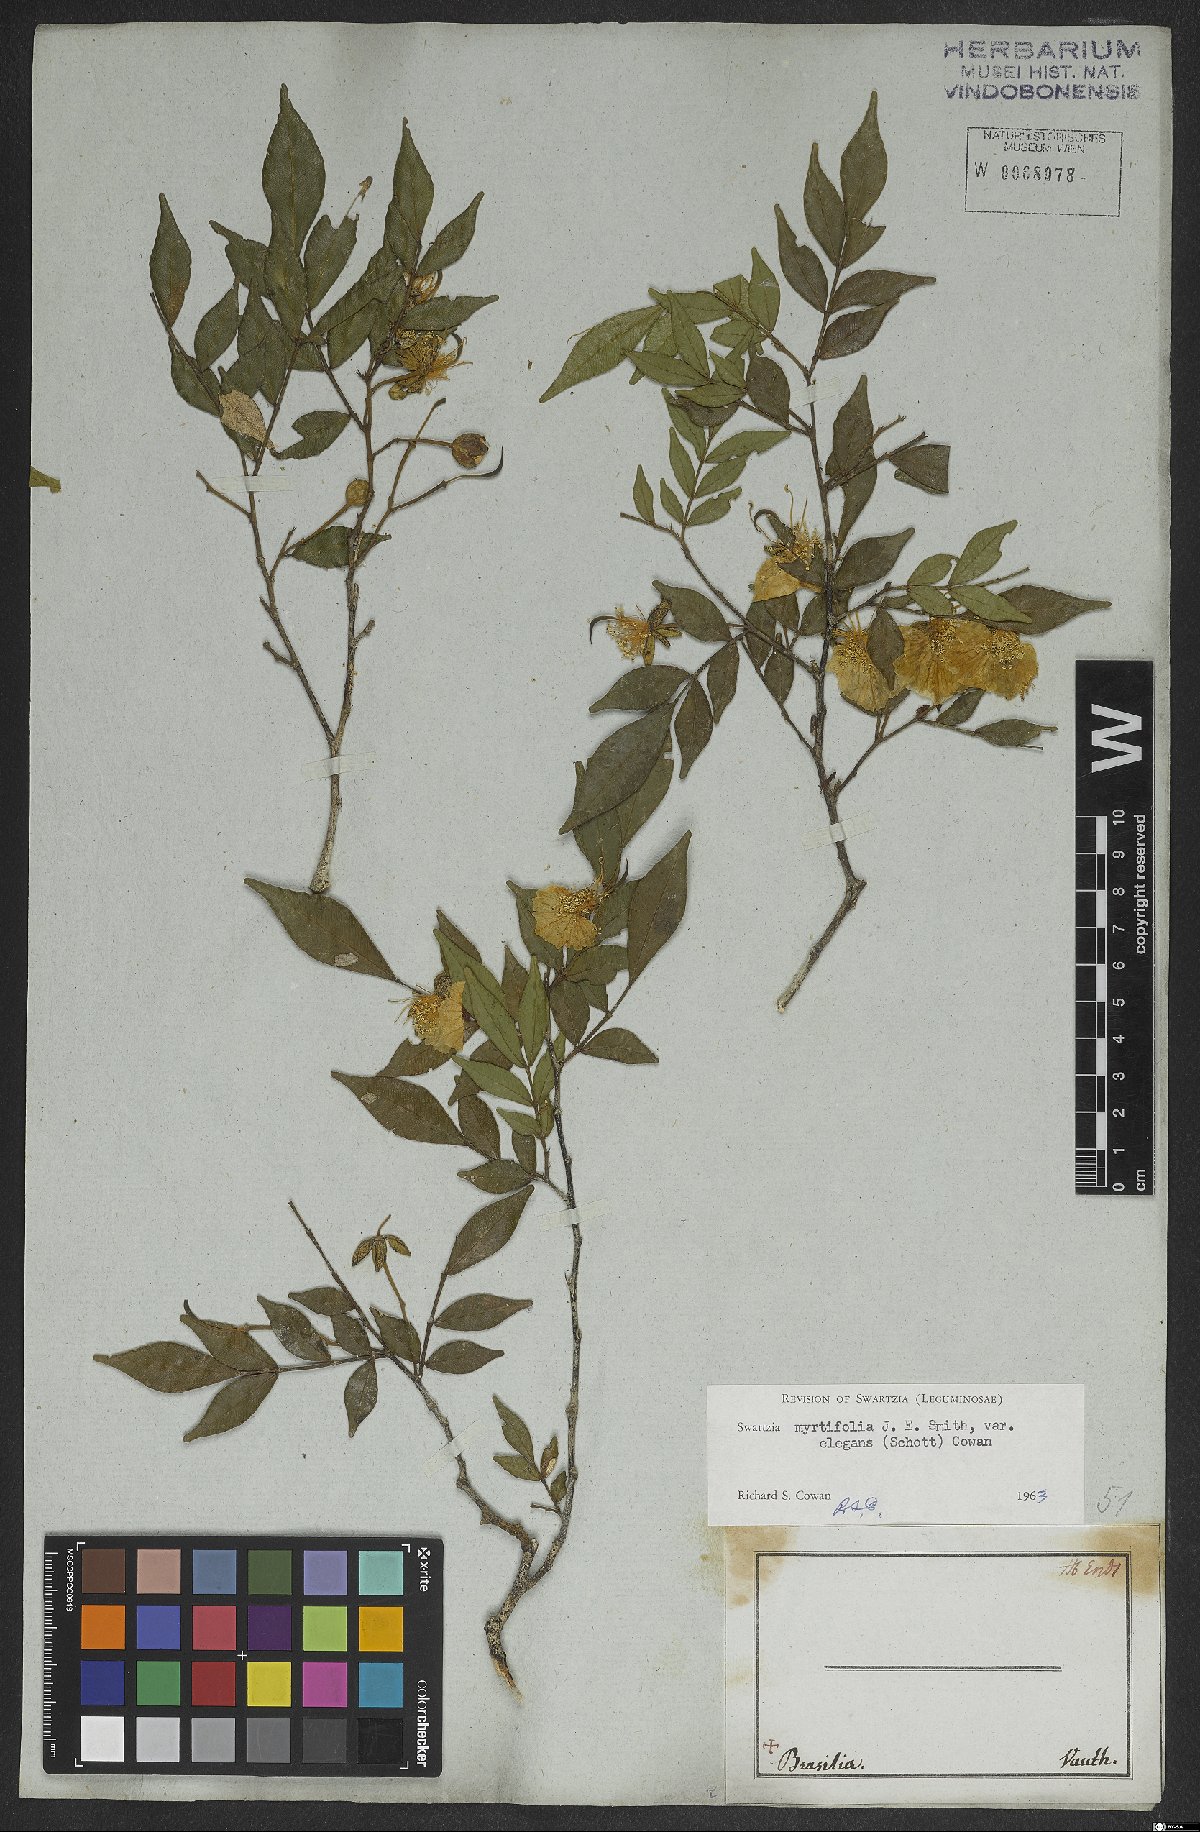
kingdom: Plantae
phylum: Tracheophyta
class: Magnoliopsida
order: Fabales
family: Fabaceae
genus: Swartzia
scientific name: Swartzia myrtifolia
